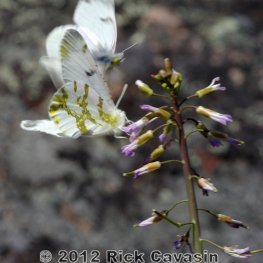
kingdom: Animalia
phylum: Arthropoda
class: Insecta
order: Lepidoptera
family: Pieridae
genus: Euchloe
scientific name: Euchloe olympia
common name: Olympia Marble
